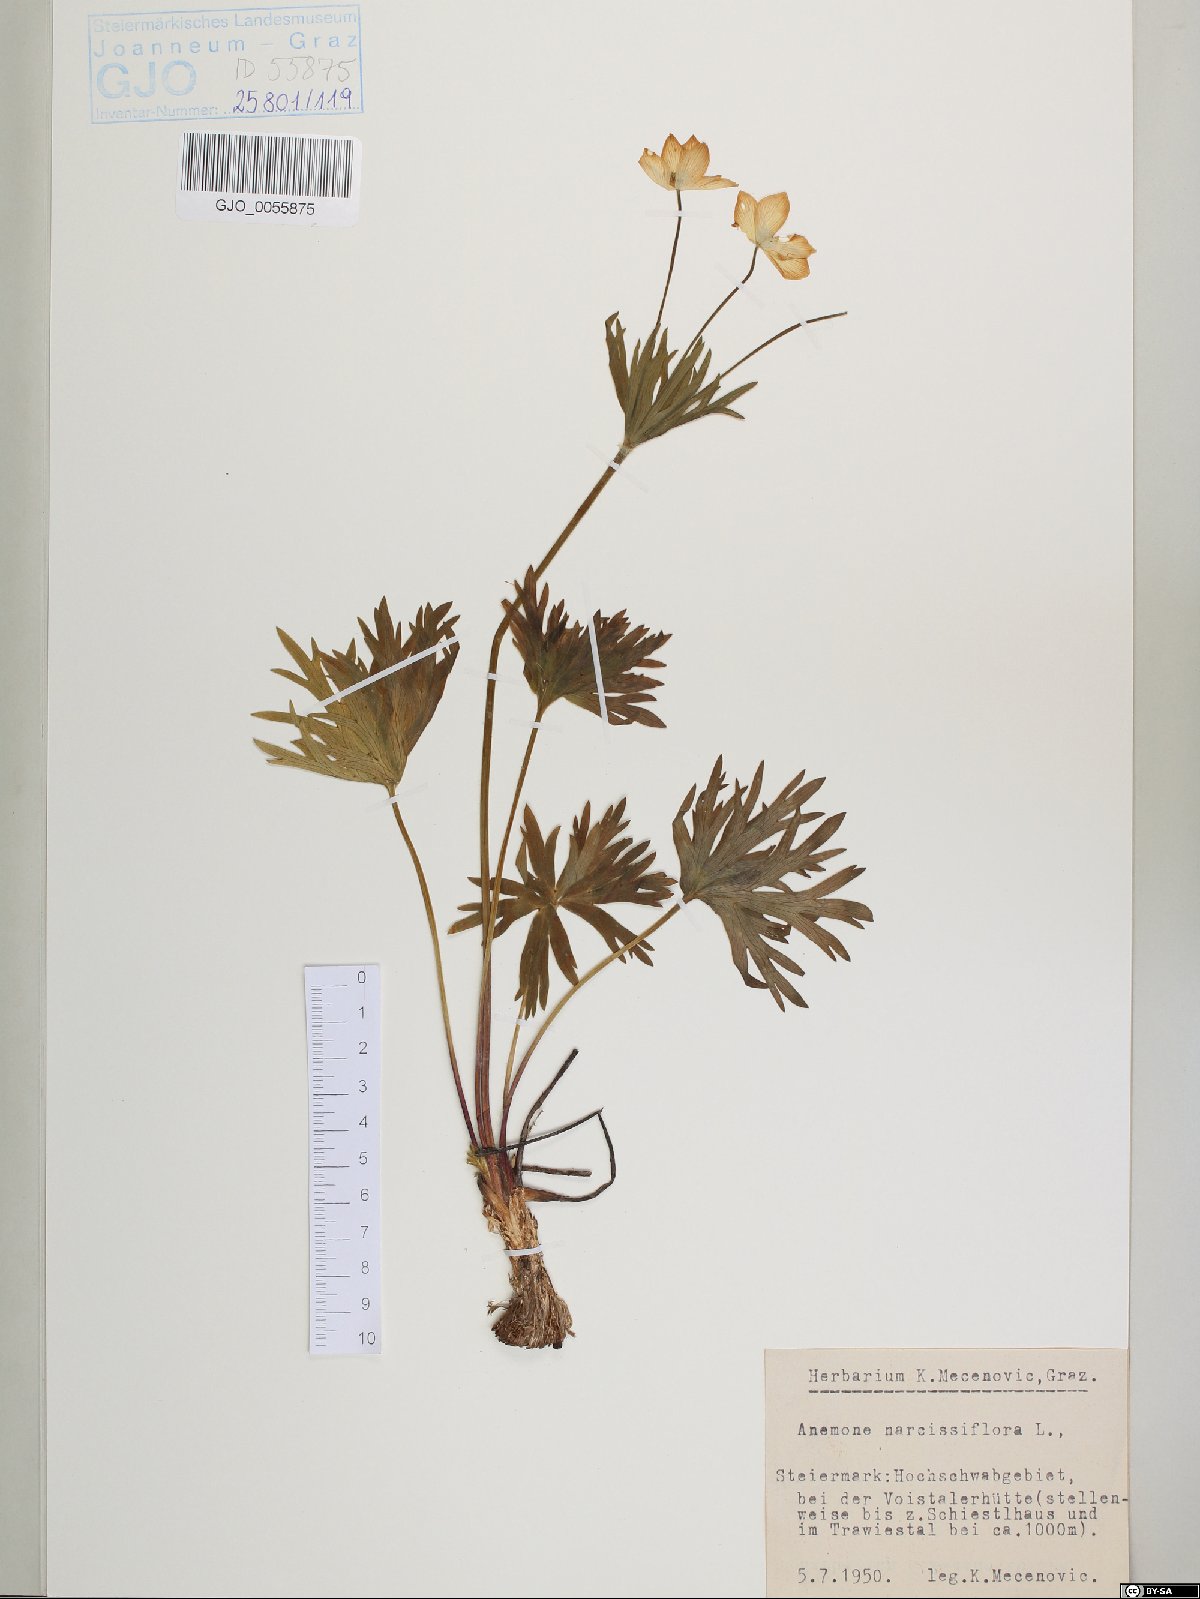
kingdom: Plantae
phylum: Tracheophyta
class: Magnoliopsida
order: Ranunculales
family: Ranunculaceae
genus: Anemonastrum
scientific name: Anemonastrum narcissiflorum
